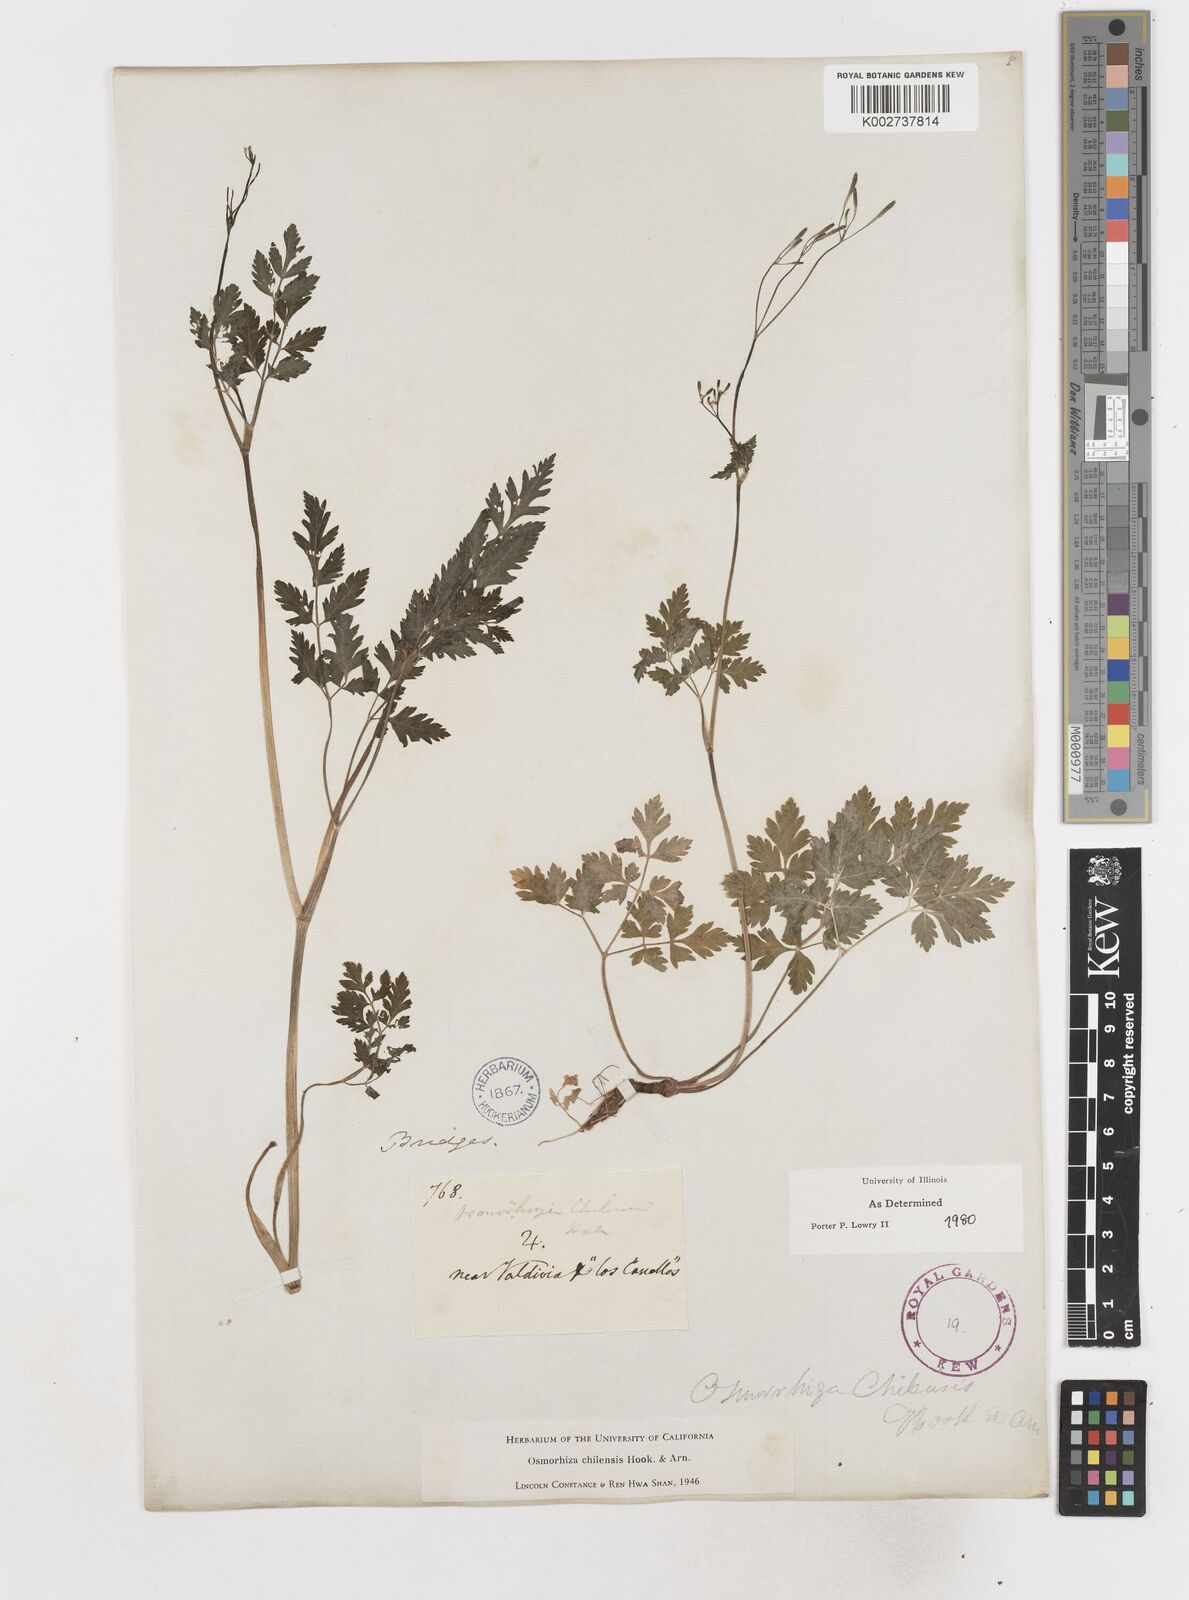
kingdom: Plantae
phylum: Tracheophyta
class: Magnoliopsida
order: Apiales
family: Apiaceae
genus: Osmorhiza
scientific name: Osmorhiza berteroi
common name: Mountain sweet cicely
